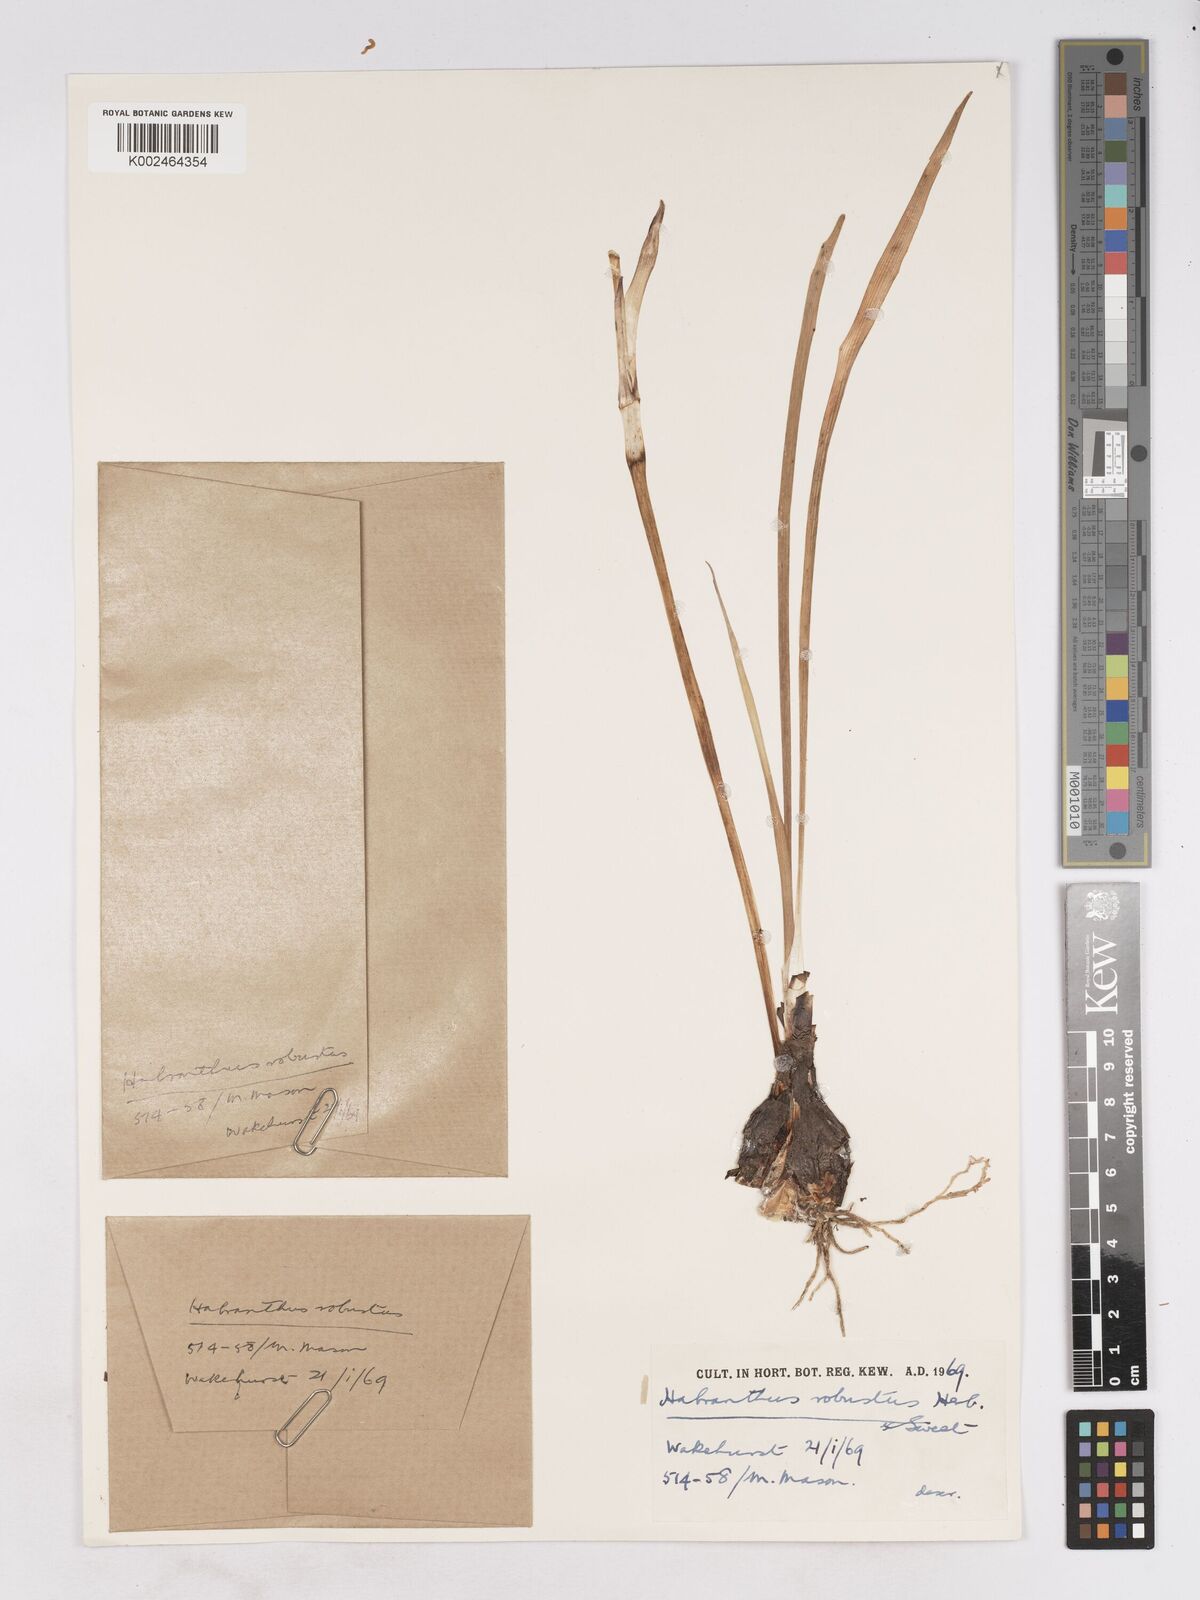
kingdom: Plantae
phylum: Tracheophyta
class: Liliopsida
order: Asparagales
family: Amaryllidaceae
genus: Zephyranthes
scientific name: Zephyranthes robusta
